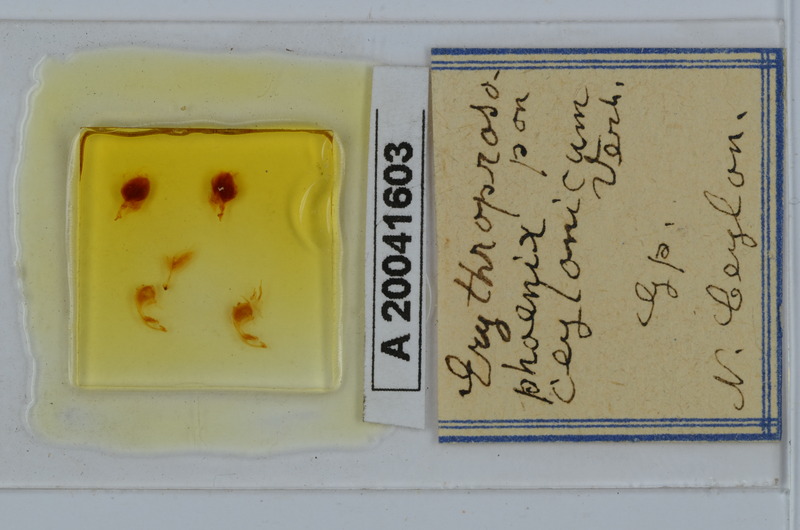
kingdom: Animalia
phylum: Arthropoda
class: Diplopoda
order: Spirobolida
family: Pachybolidae
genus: Erythroprosopon
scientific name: Erythroprosopon phoenix
